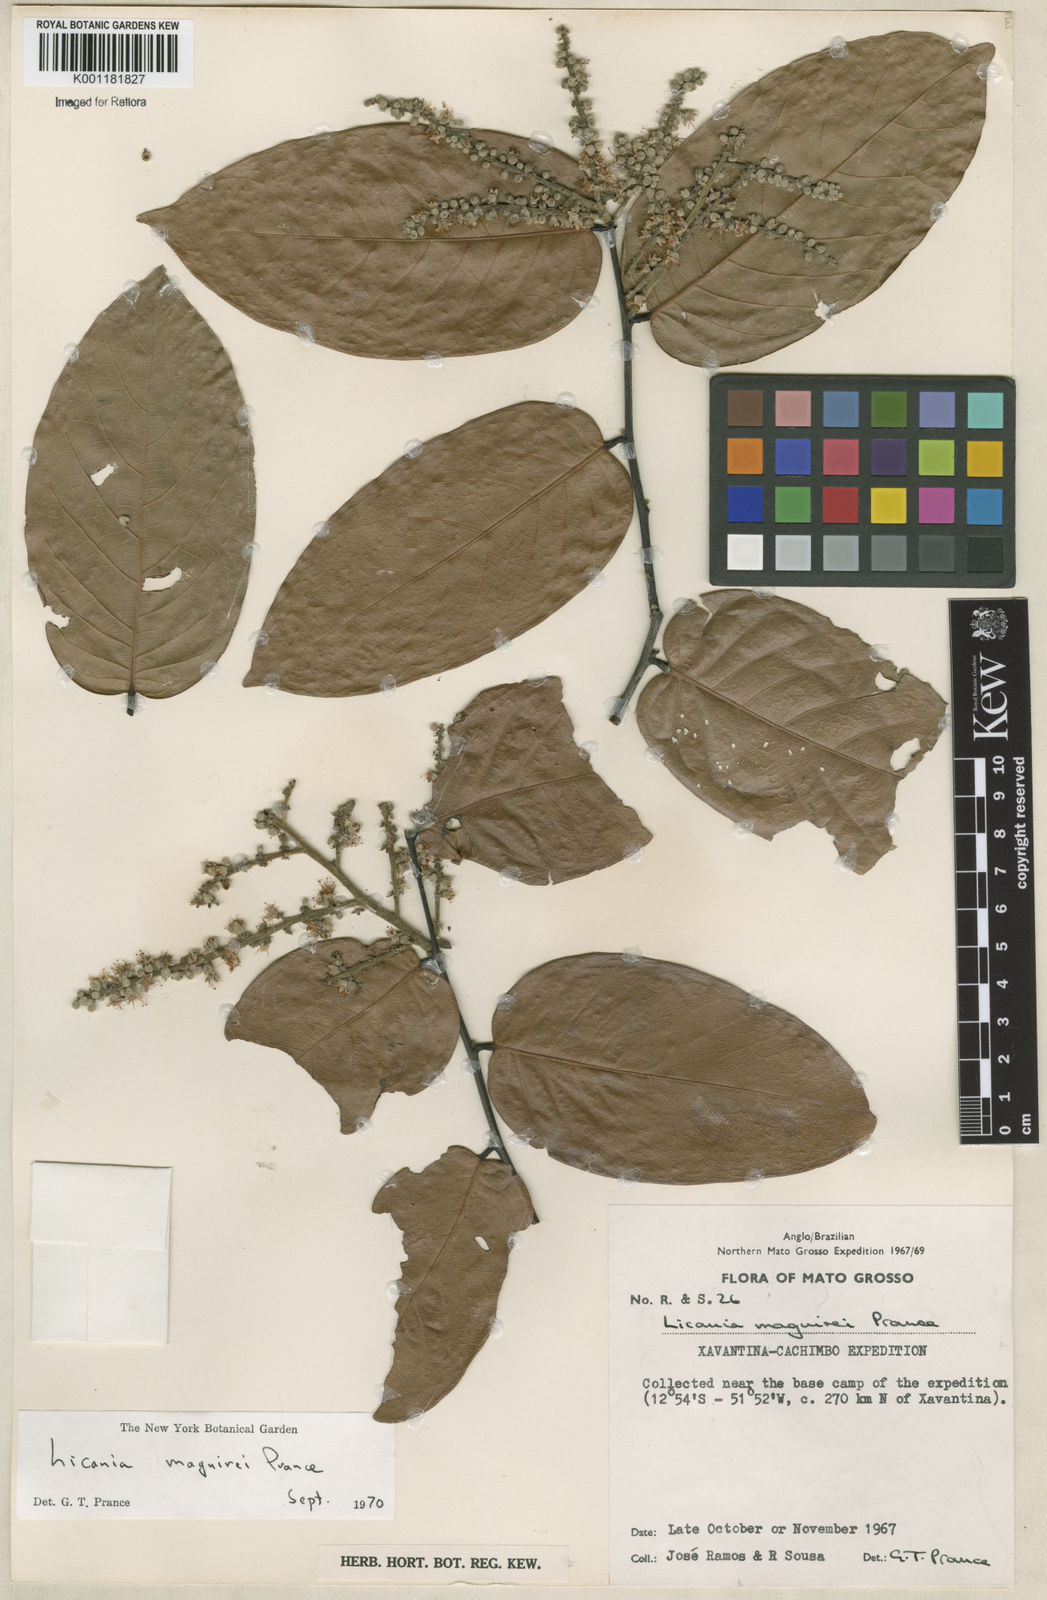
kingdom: Plantae
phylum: Tracheophyta
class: Magnoliopsida
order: Malpighiales
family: Chrysobalanaceae
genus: Leptobalanus
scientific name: Leptobalanus maguirei
